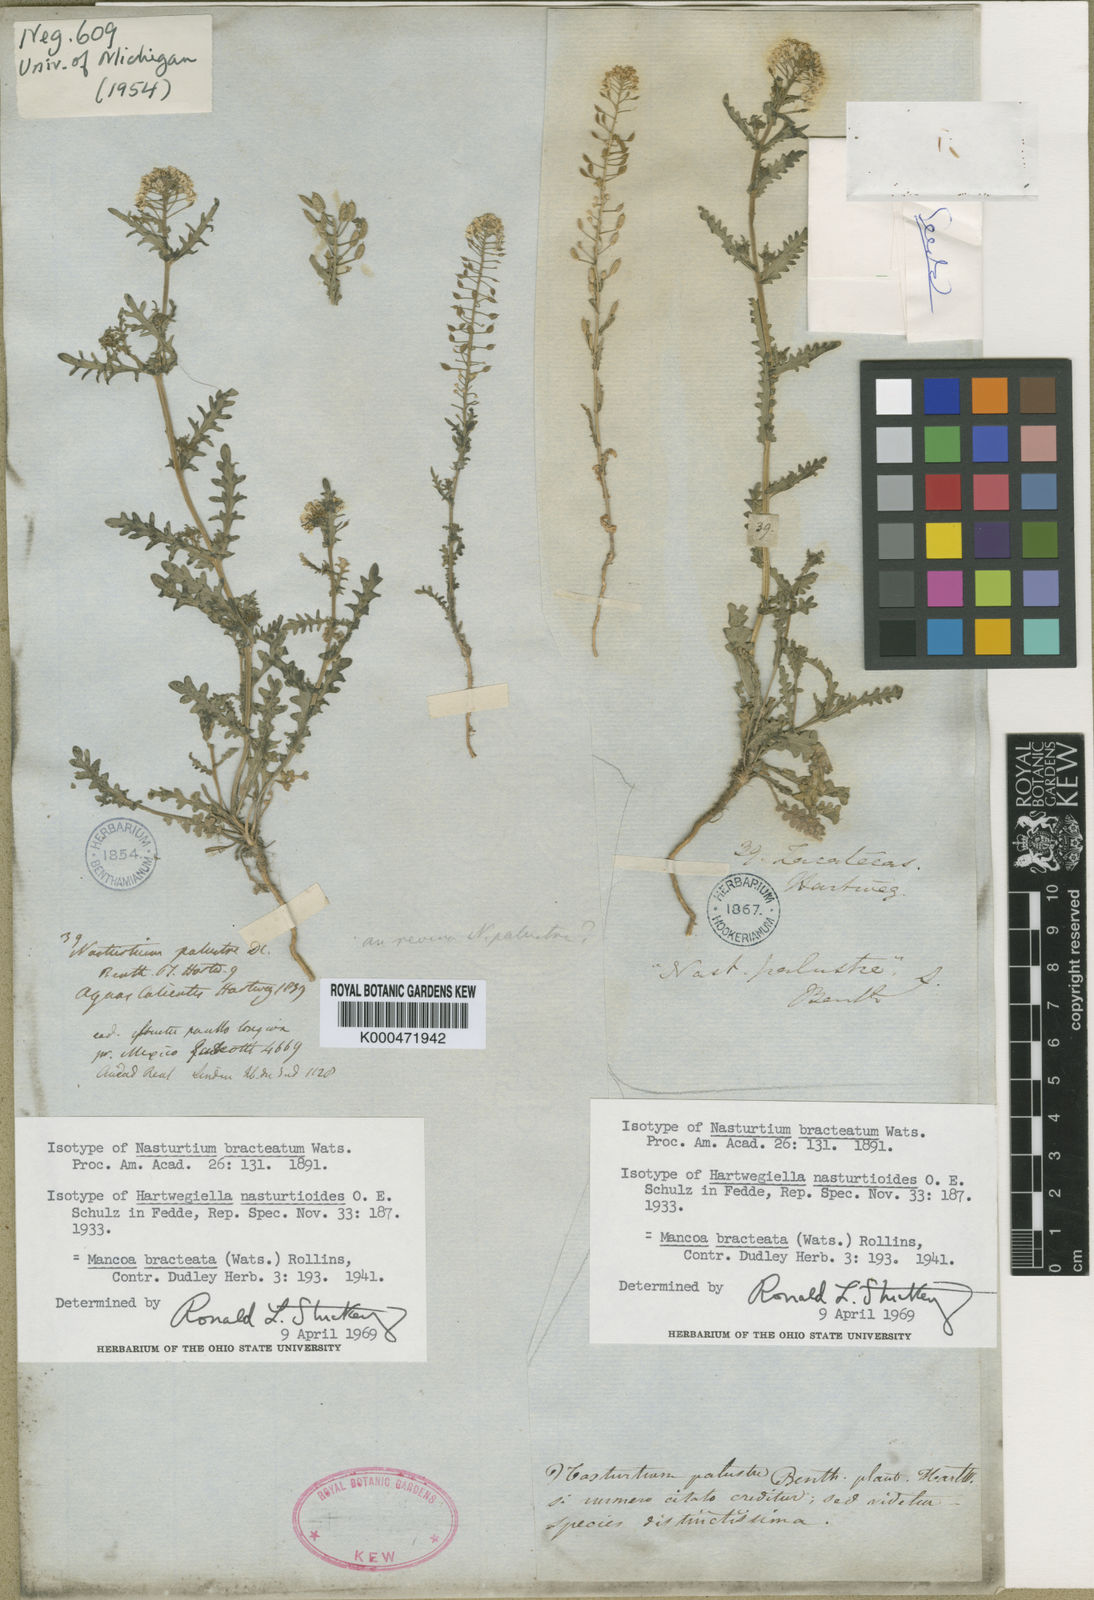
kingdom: Plantae
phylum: Tracheophyta
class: Magnoliopsida
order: Brassicales
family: Brassicaceae
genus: Mancoa
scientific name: Mancoa bracteata
